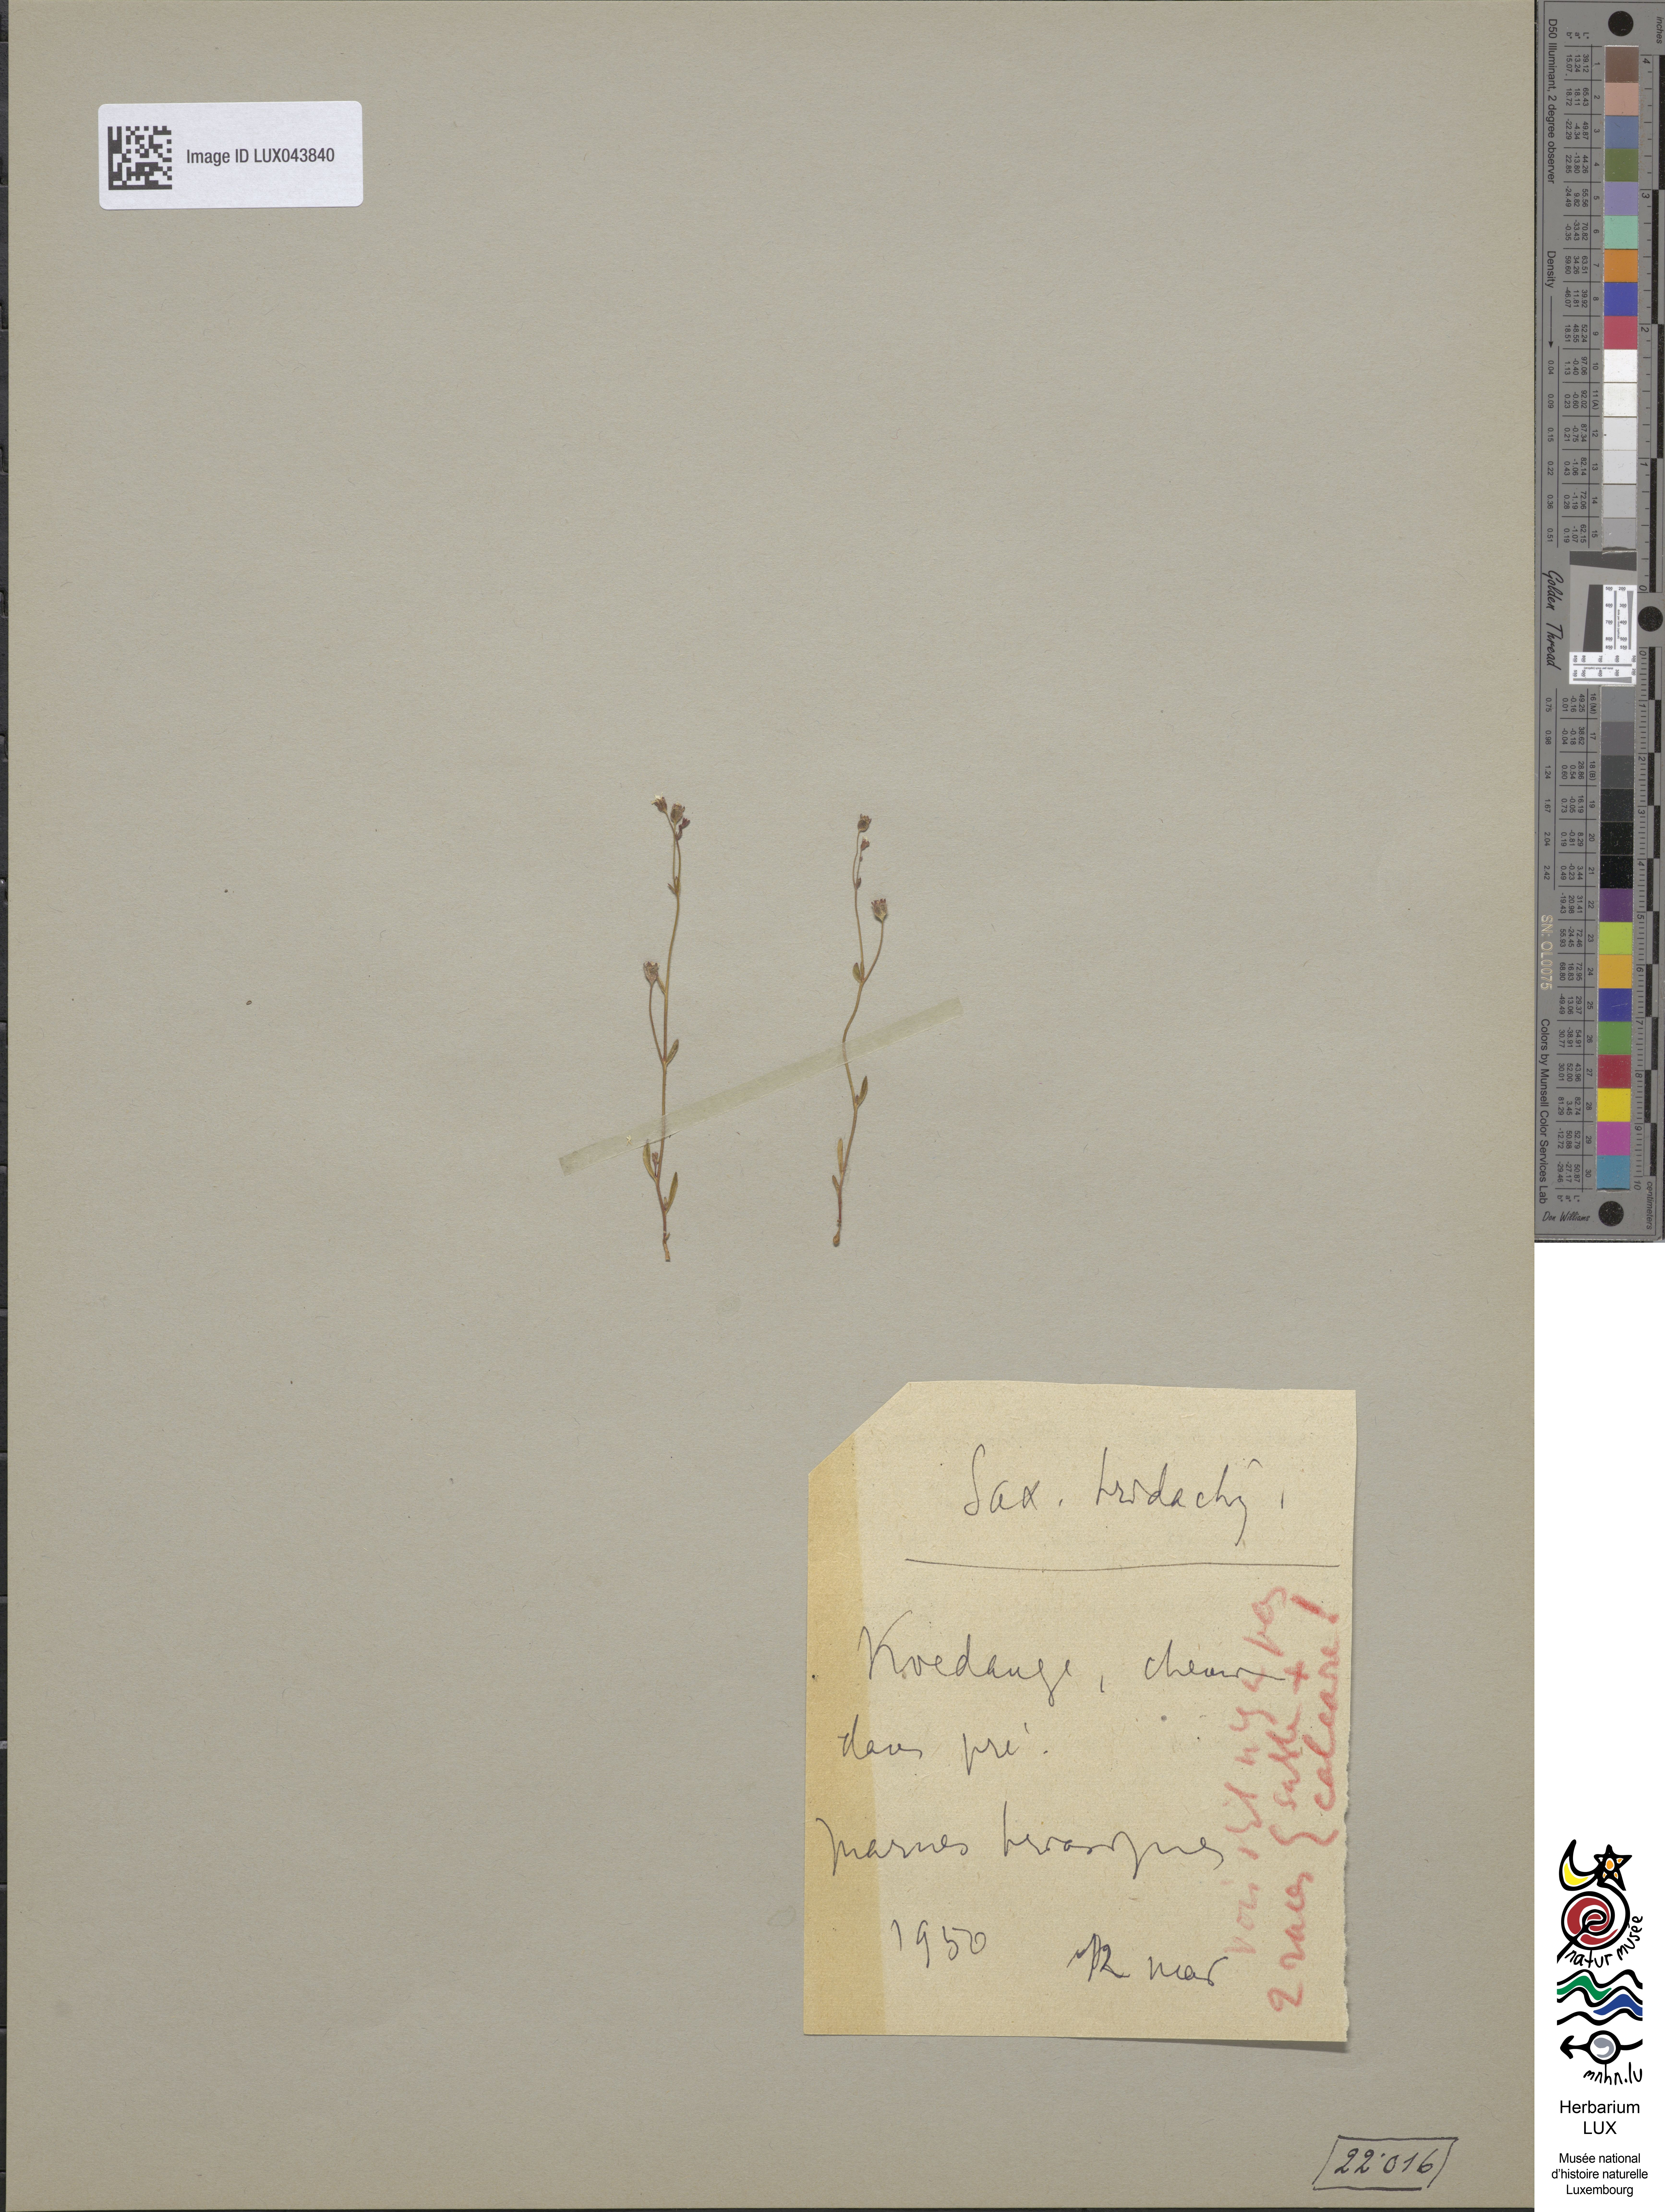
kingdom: Plantae
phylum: Tracheophyta
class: Magnoliopsida
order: Saxifragales
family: Saxifragaceae
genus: Saxifraga
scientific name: Saxifraga tridactylites
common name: Rue-leaved saxifrage
